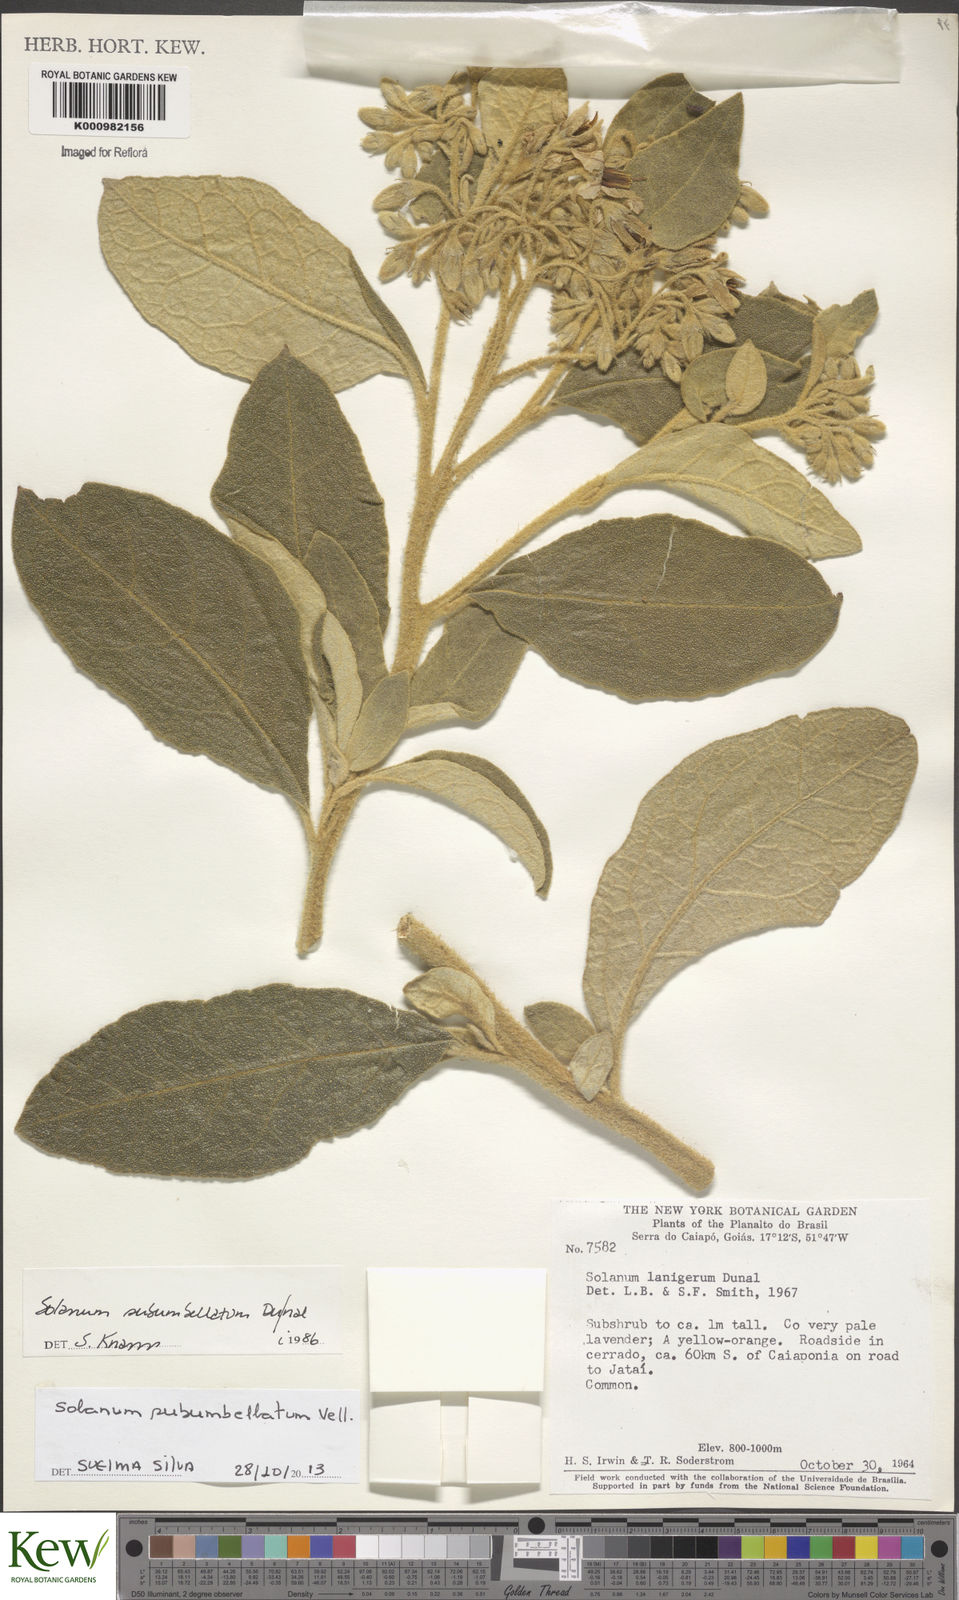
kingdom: Plantae
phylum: Tracheophyta
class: Magnoliopsida
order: Solanales
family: Solanaceae
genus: Solanum
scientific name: Solanum subumbellatum
